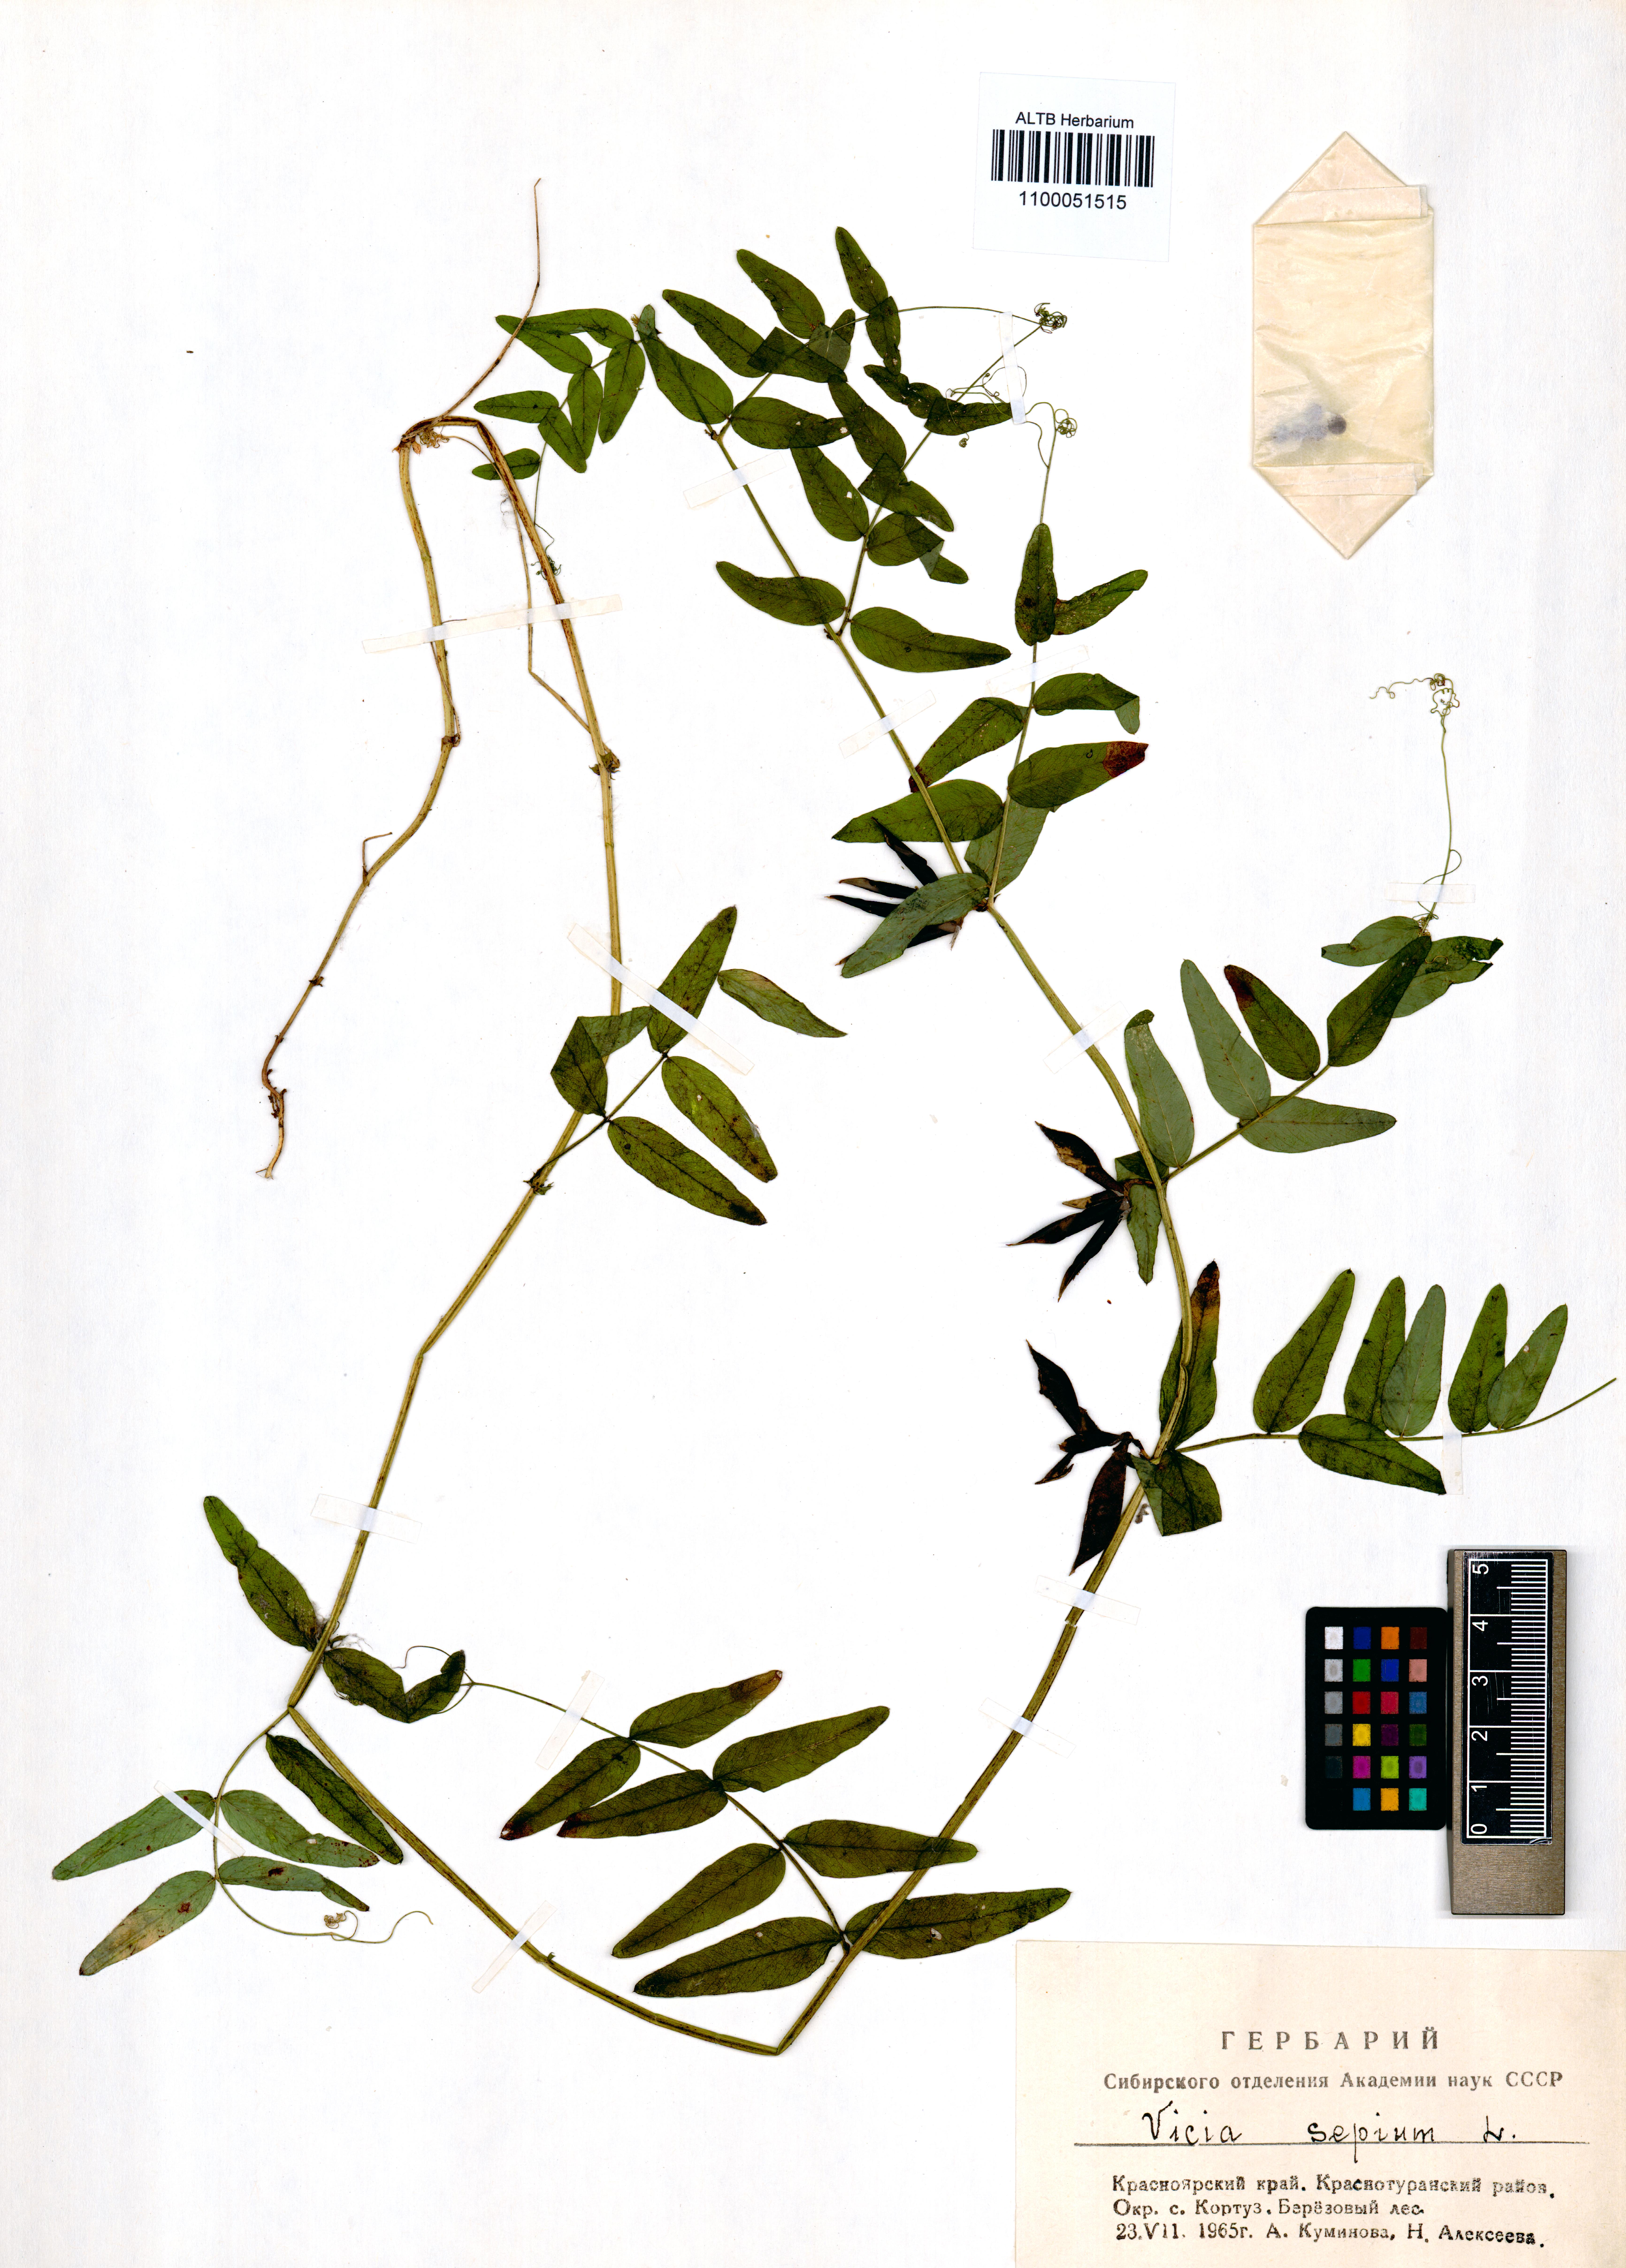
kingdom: Plantae
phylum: Tracheophyta
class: Magnoliopsida
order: Fabales
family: Fabaceae
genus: Vicia
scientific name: Vicia sepium
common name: Bush vetch
